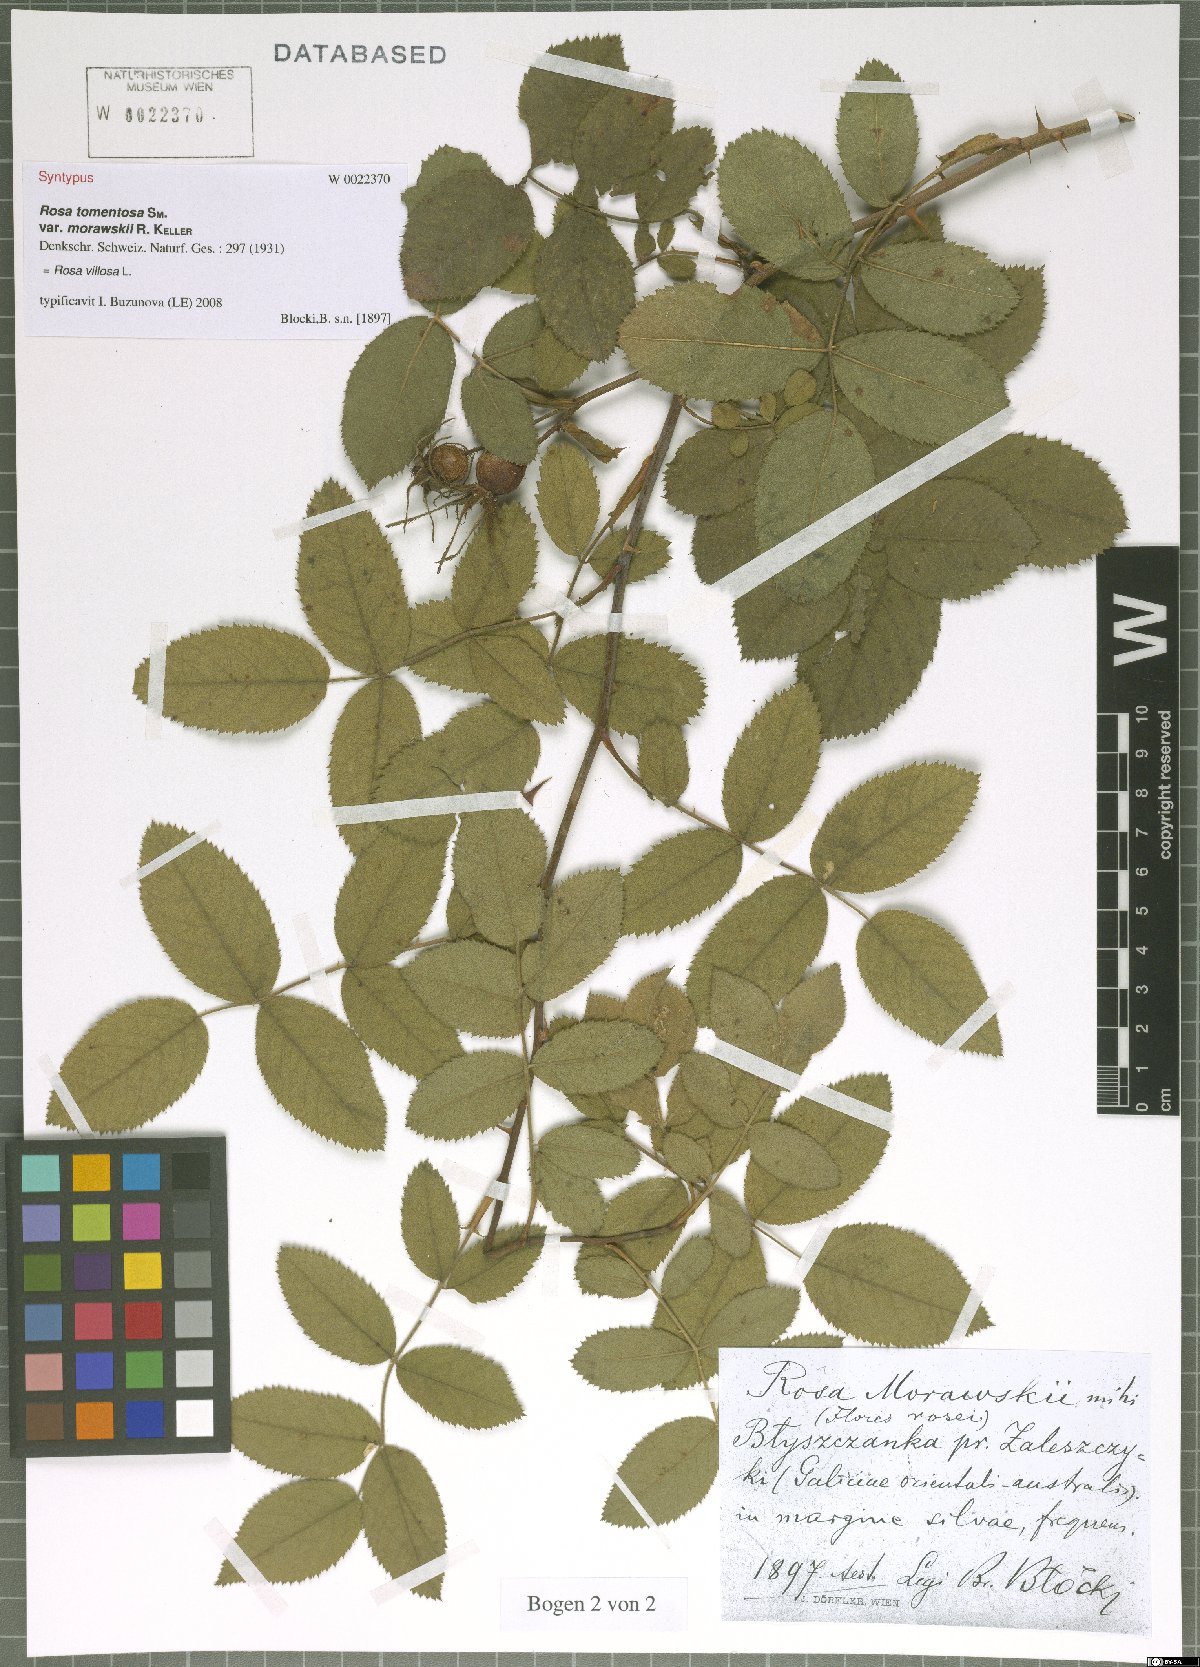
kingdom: Plantae
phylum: Tracheophyta
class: Magnoliopsida
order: Rosales
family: Rosaceae
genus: Rosa
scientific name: Rosa villosa
